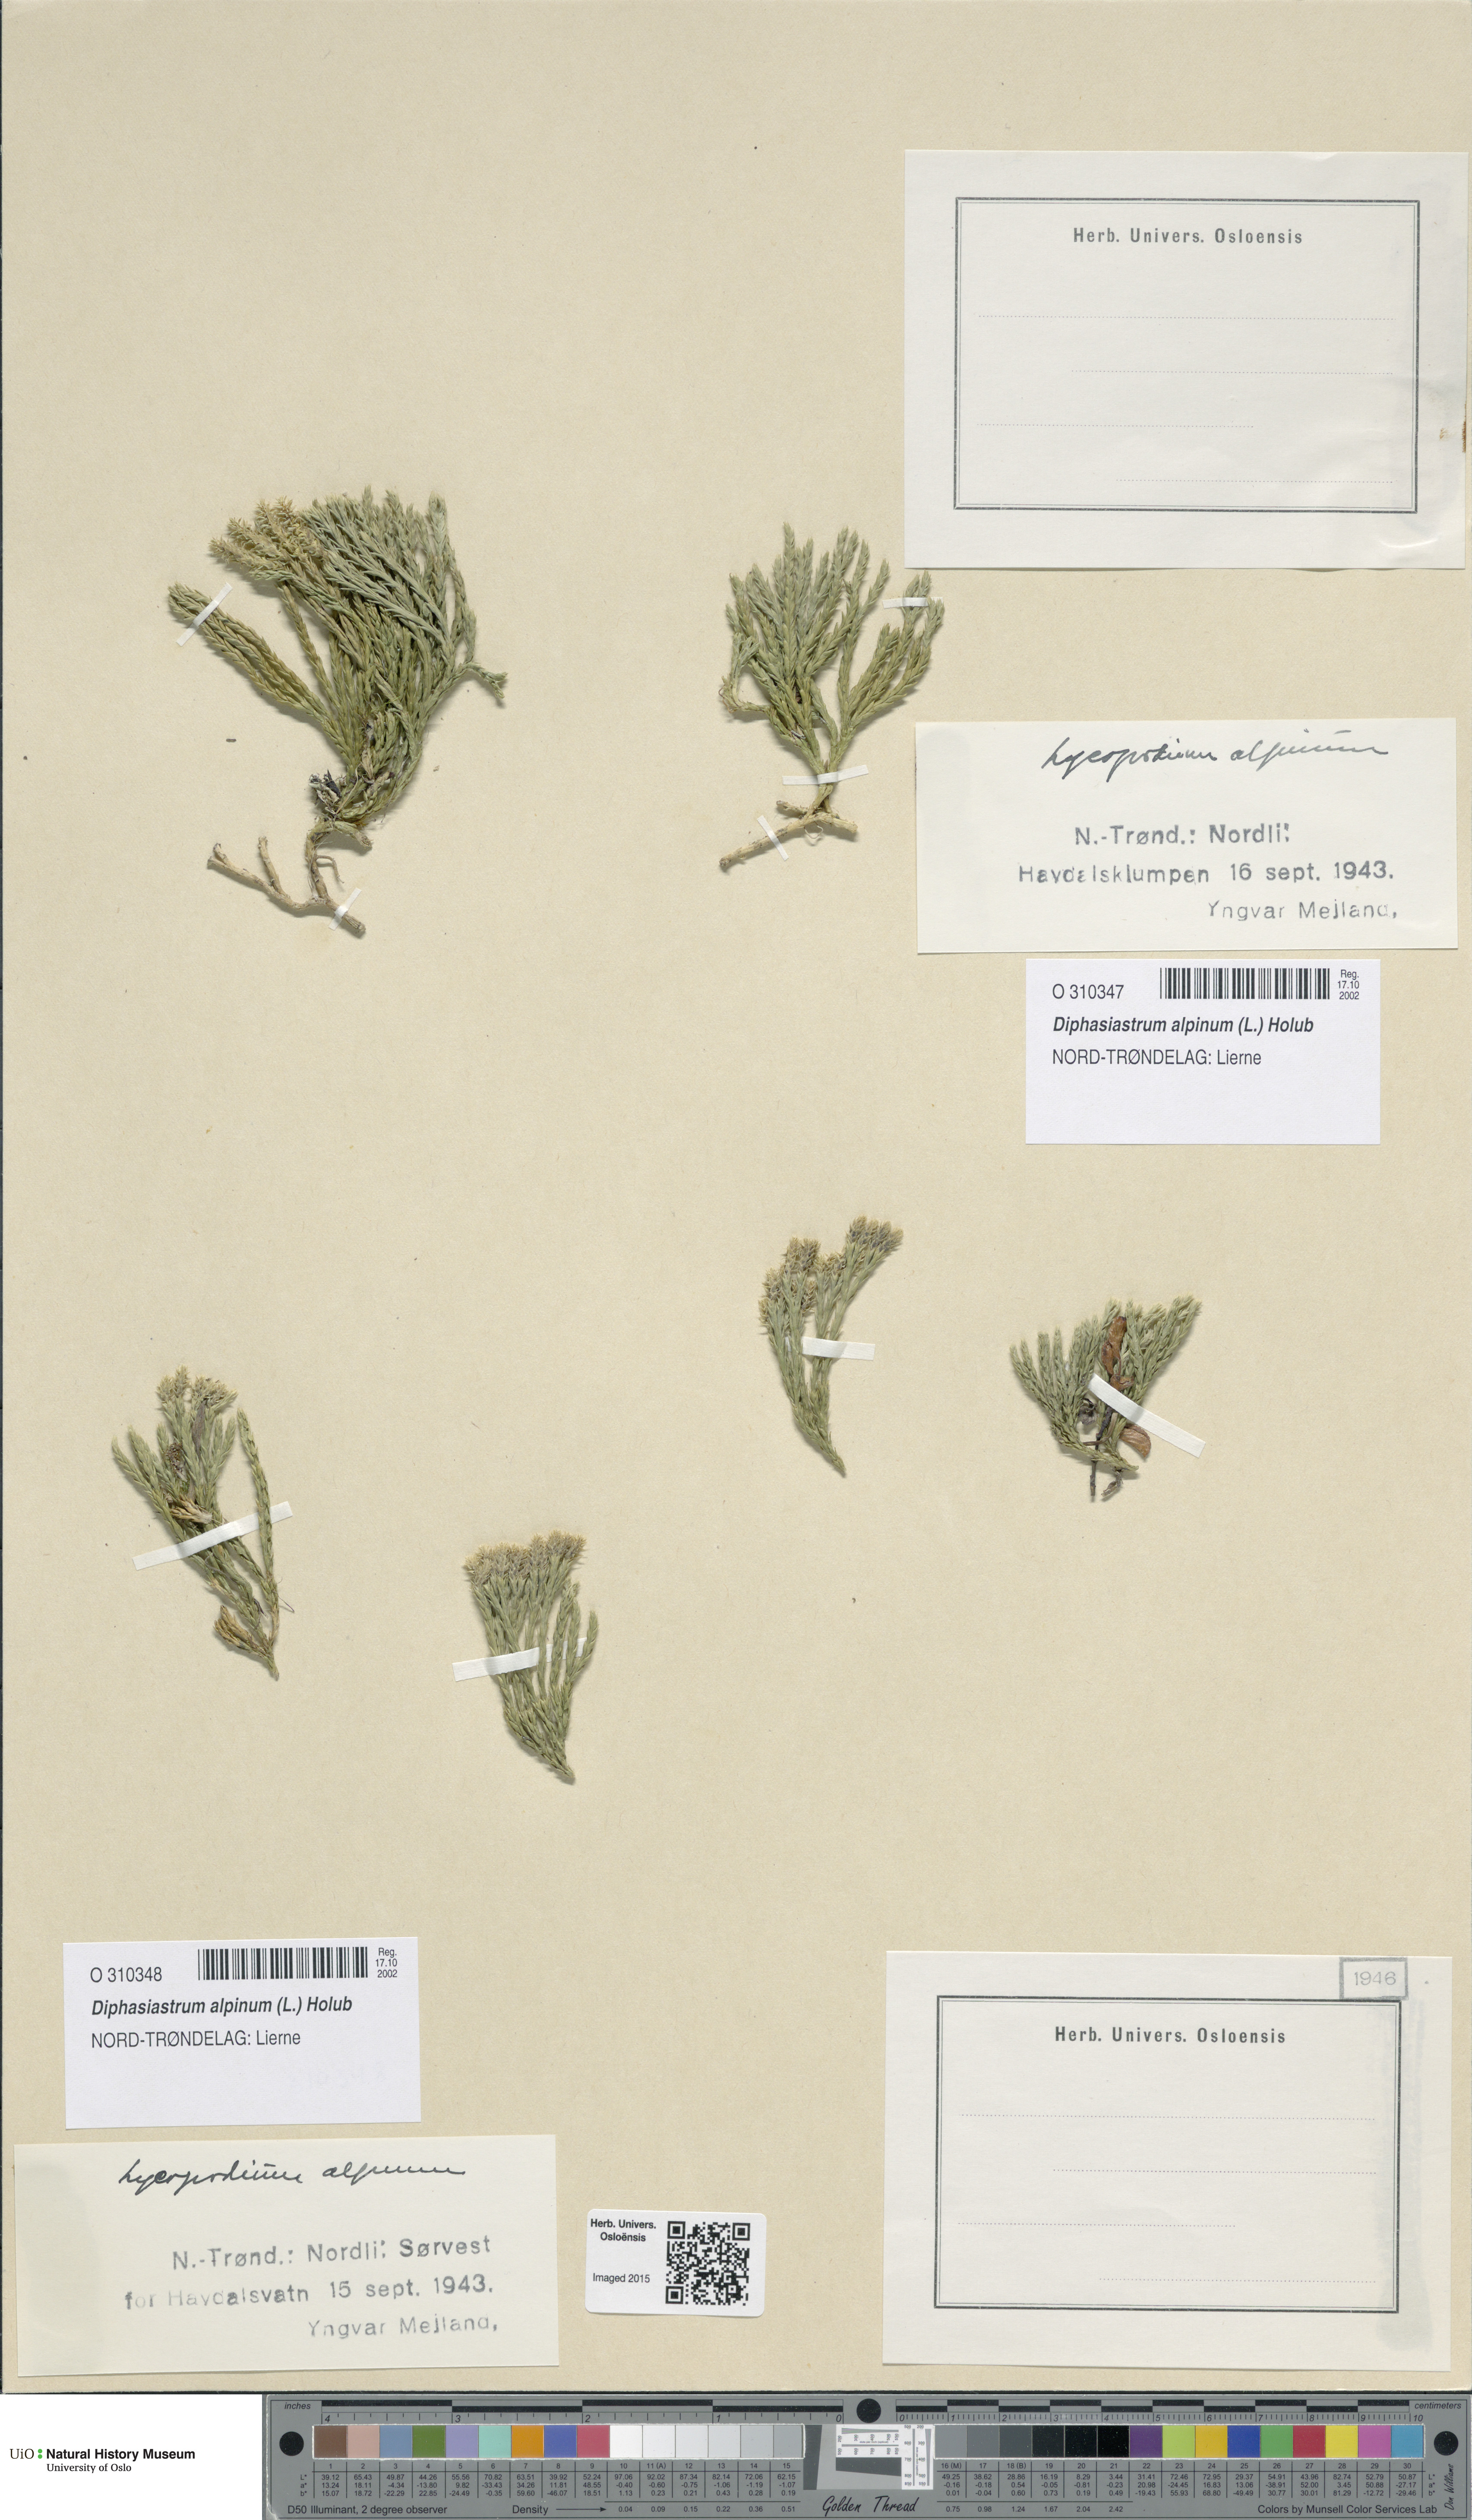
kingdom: Plantae
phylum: Tracheophyta
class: Lycopodiopsida
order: Lycopodiales
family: Lycopodiaceae
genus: Diphasiastrum
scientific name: Diphasiastrum alpinum
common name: Alpine clubmoss
